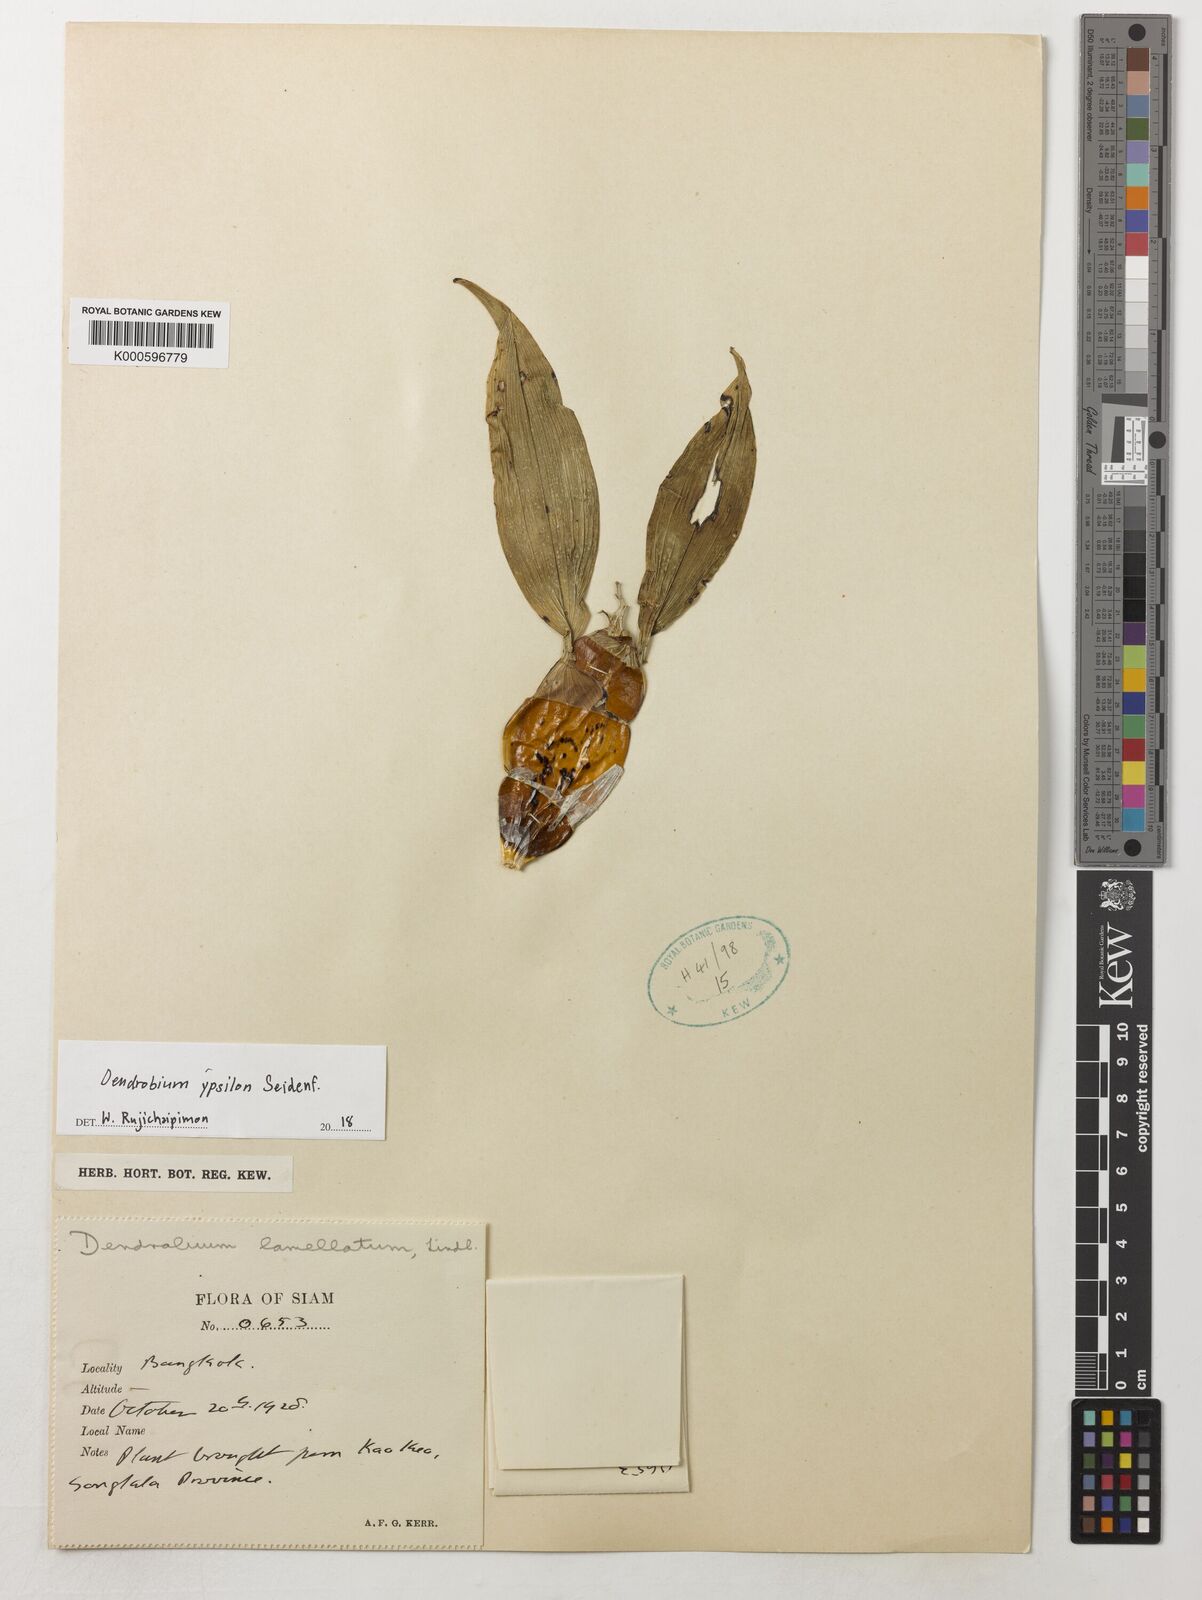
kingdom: Plantae
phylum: Tracheophyta
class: Liliopsida
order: Asparagales
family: Orchidaceae
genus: Dendrobium
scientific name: Dendrobium lamellatum
